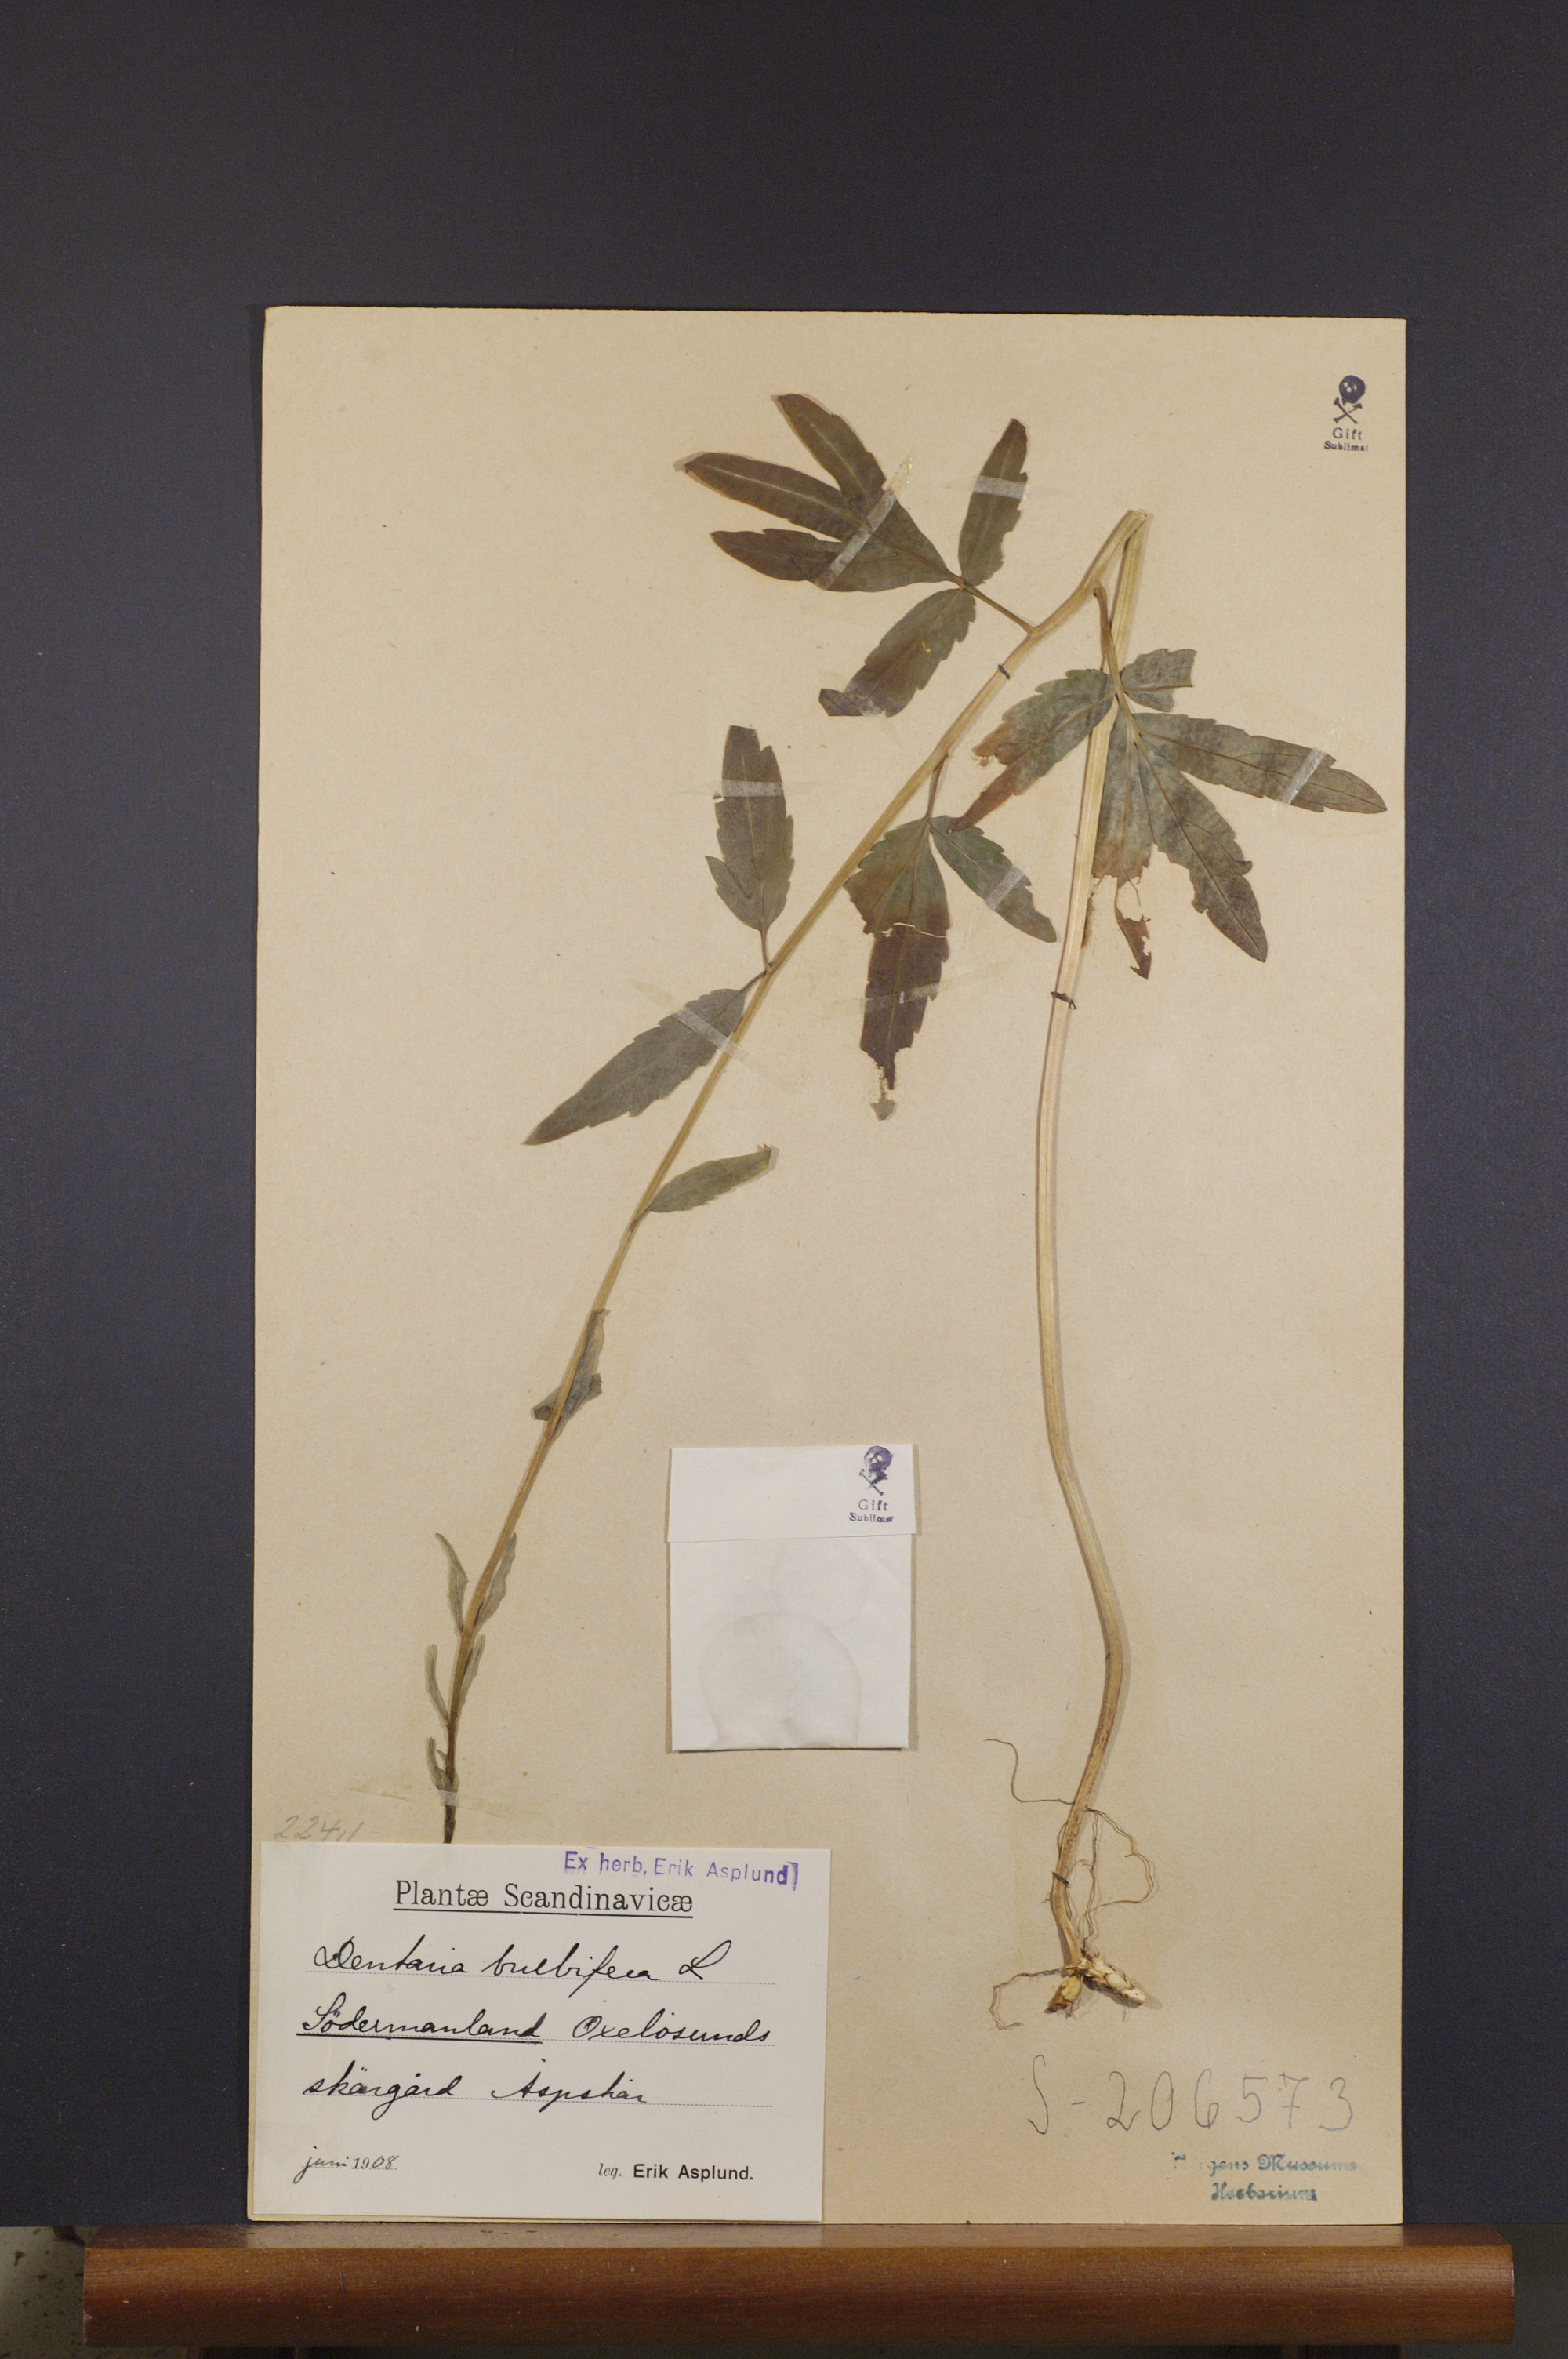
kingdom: Plantae
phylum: Tracheophyta
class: Magnoliopsida
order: Brassicales
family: Brassicaceae
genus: Cardamine
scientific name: Cardamine bulbifera
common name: Coralroot bittercress
